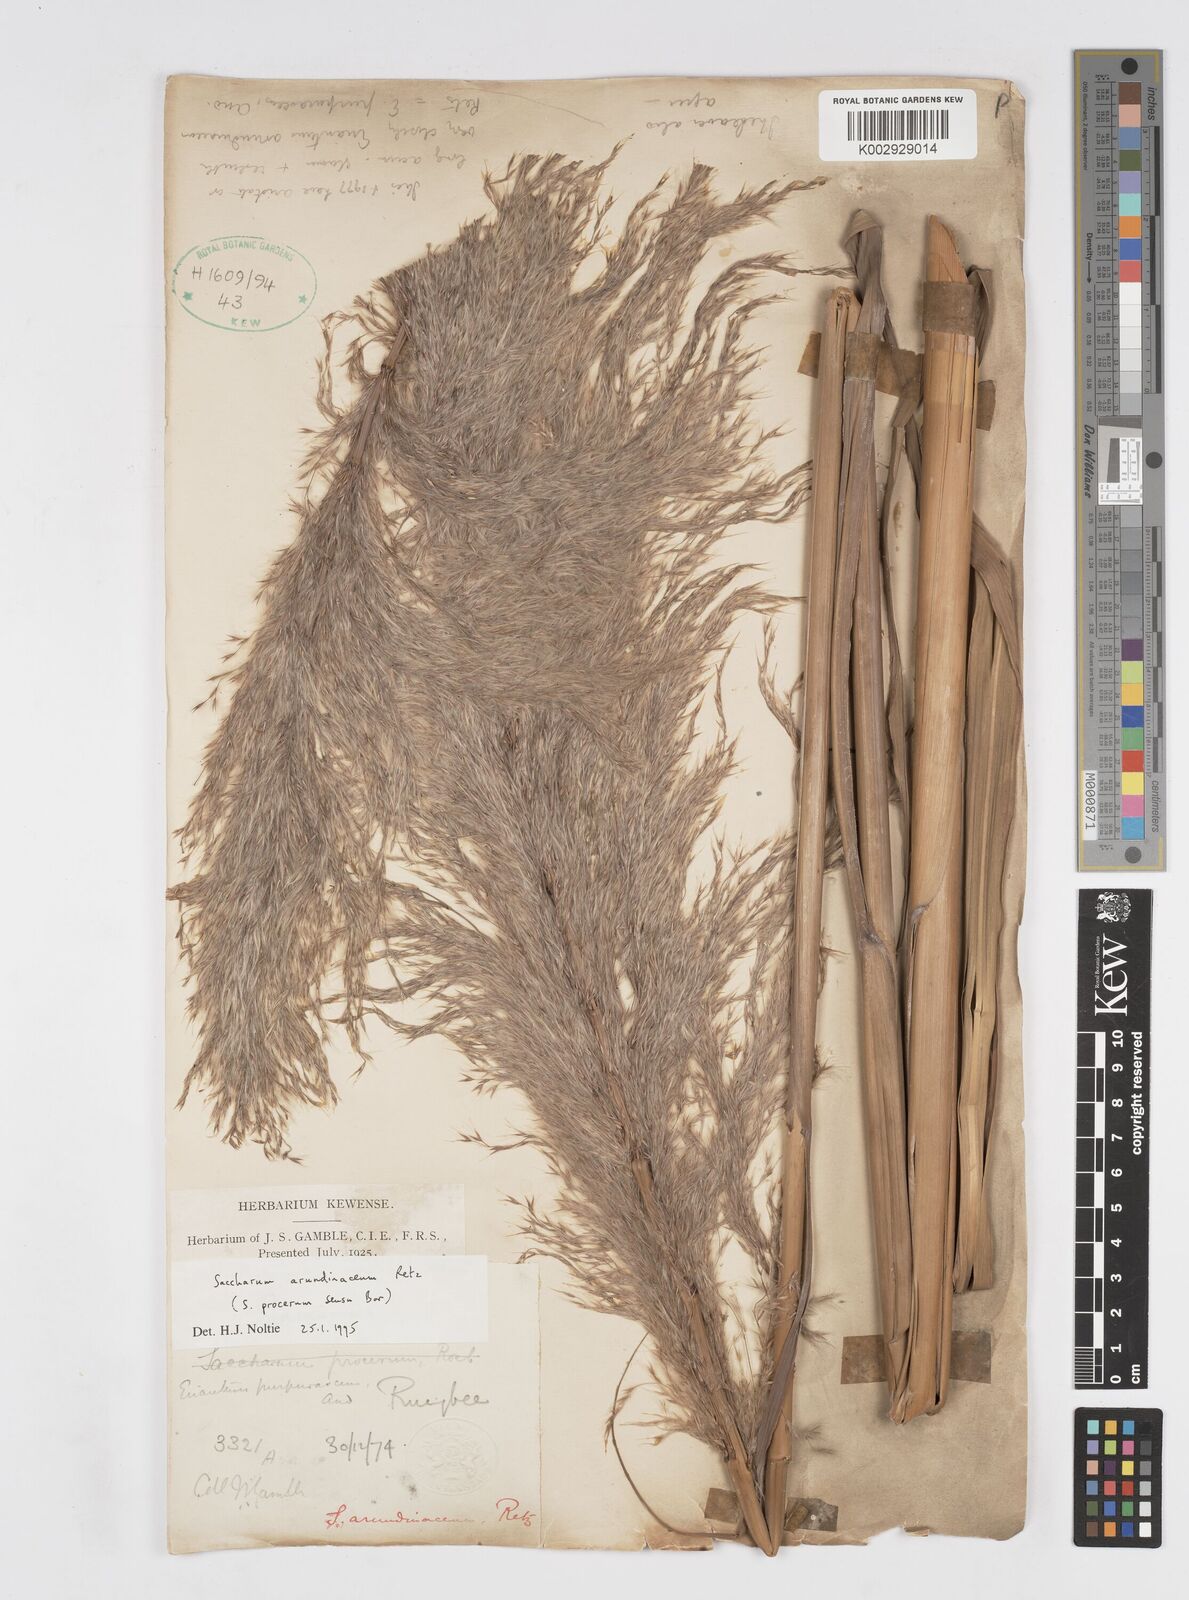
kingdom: Plantae
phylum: Tracheophyta
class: Liliopsida
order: Poales
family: Poaceae
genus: Tripidium
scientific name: Tripidium arundinaceum
